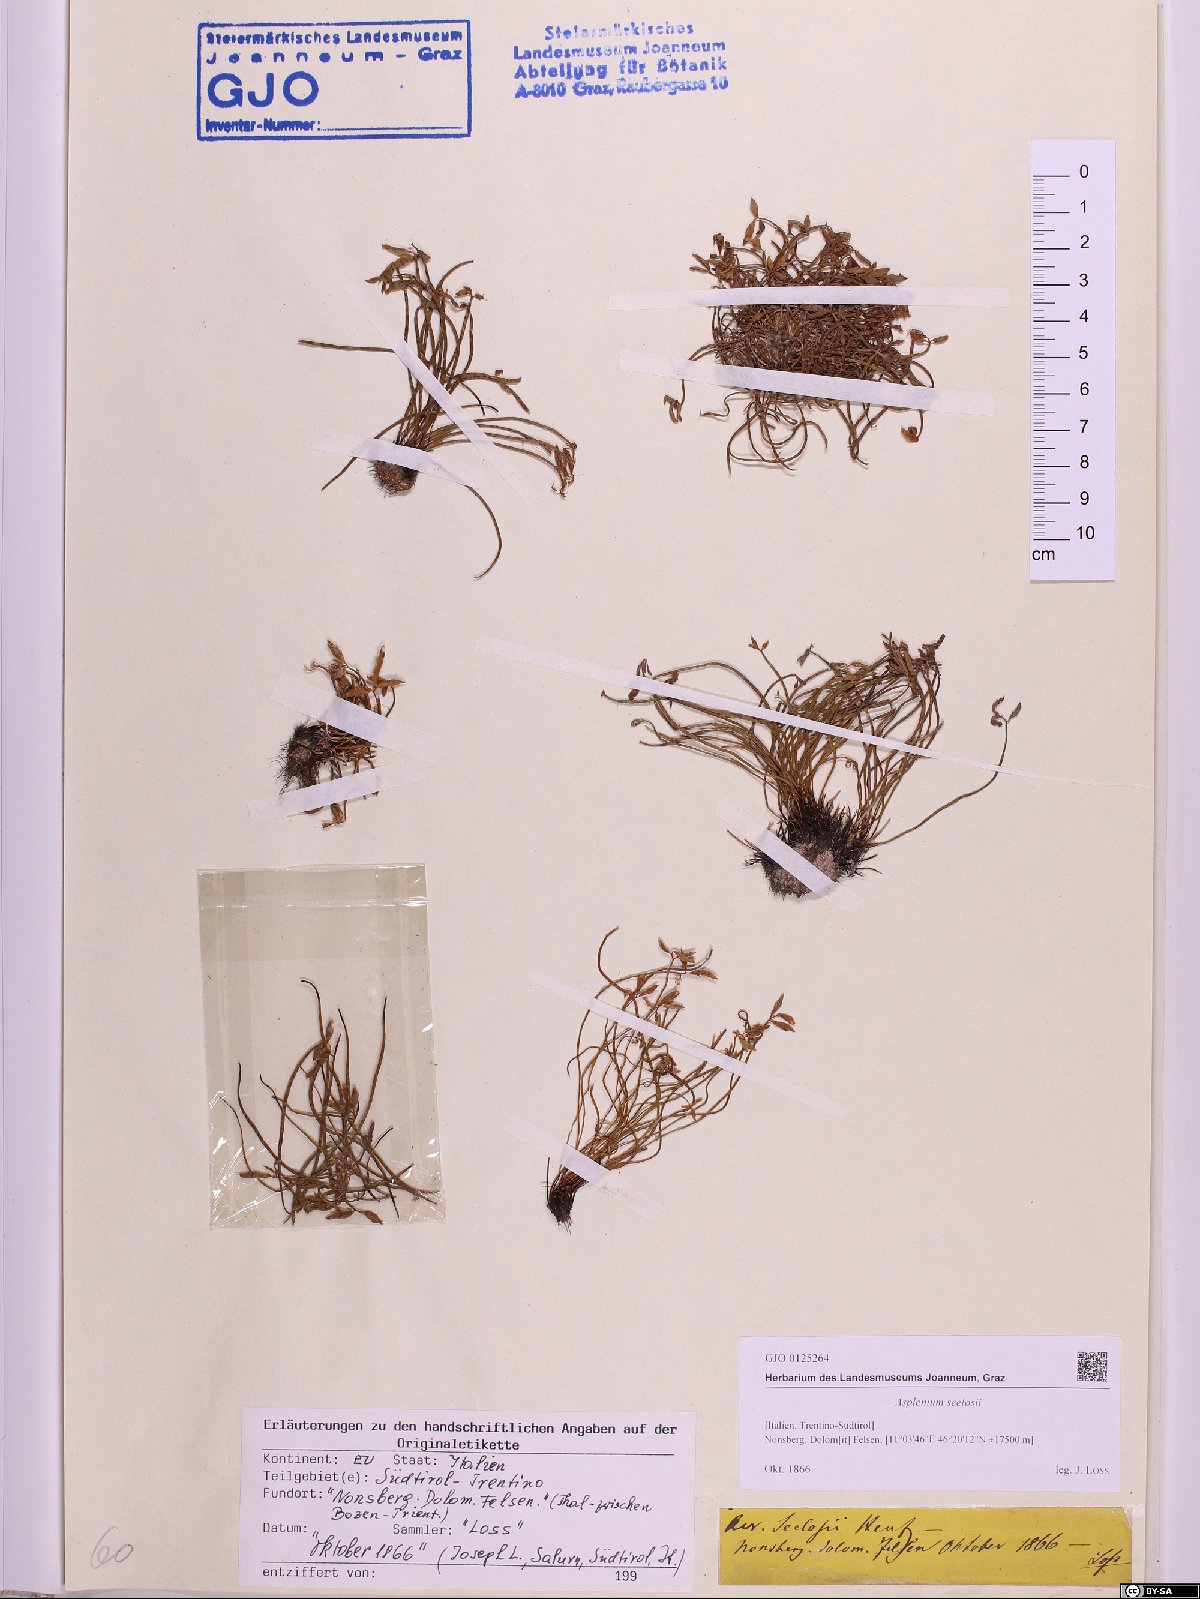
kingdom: Plantae
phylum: Tracheophyta
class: Polypodiopsida
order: Polypodiales
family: Aspleniaceae
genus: Asplenium
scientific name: Asplenium seelosii
